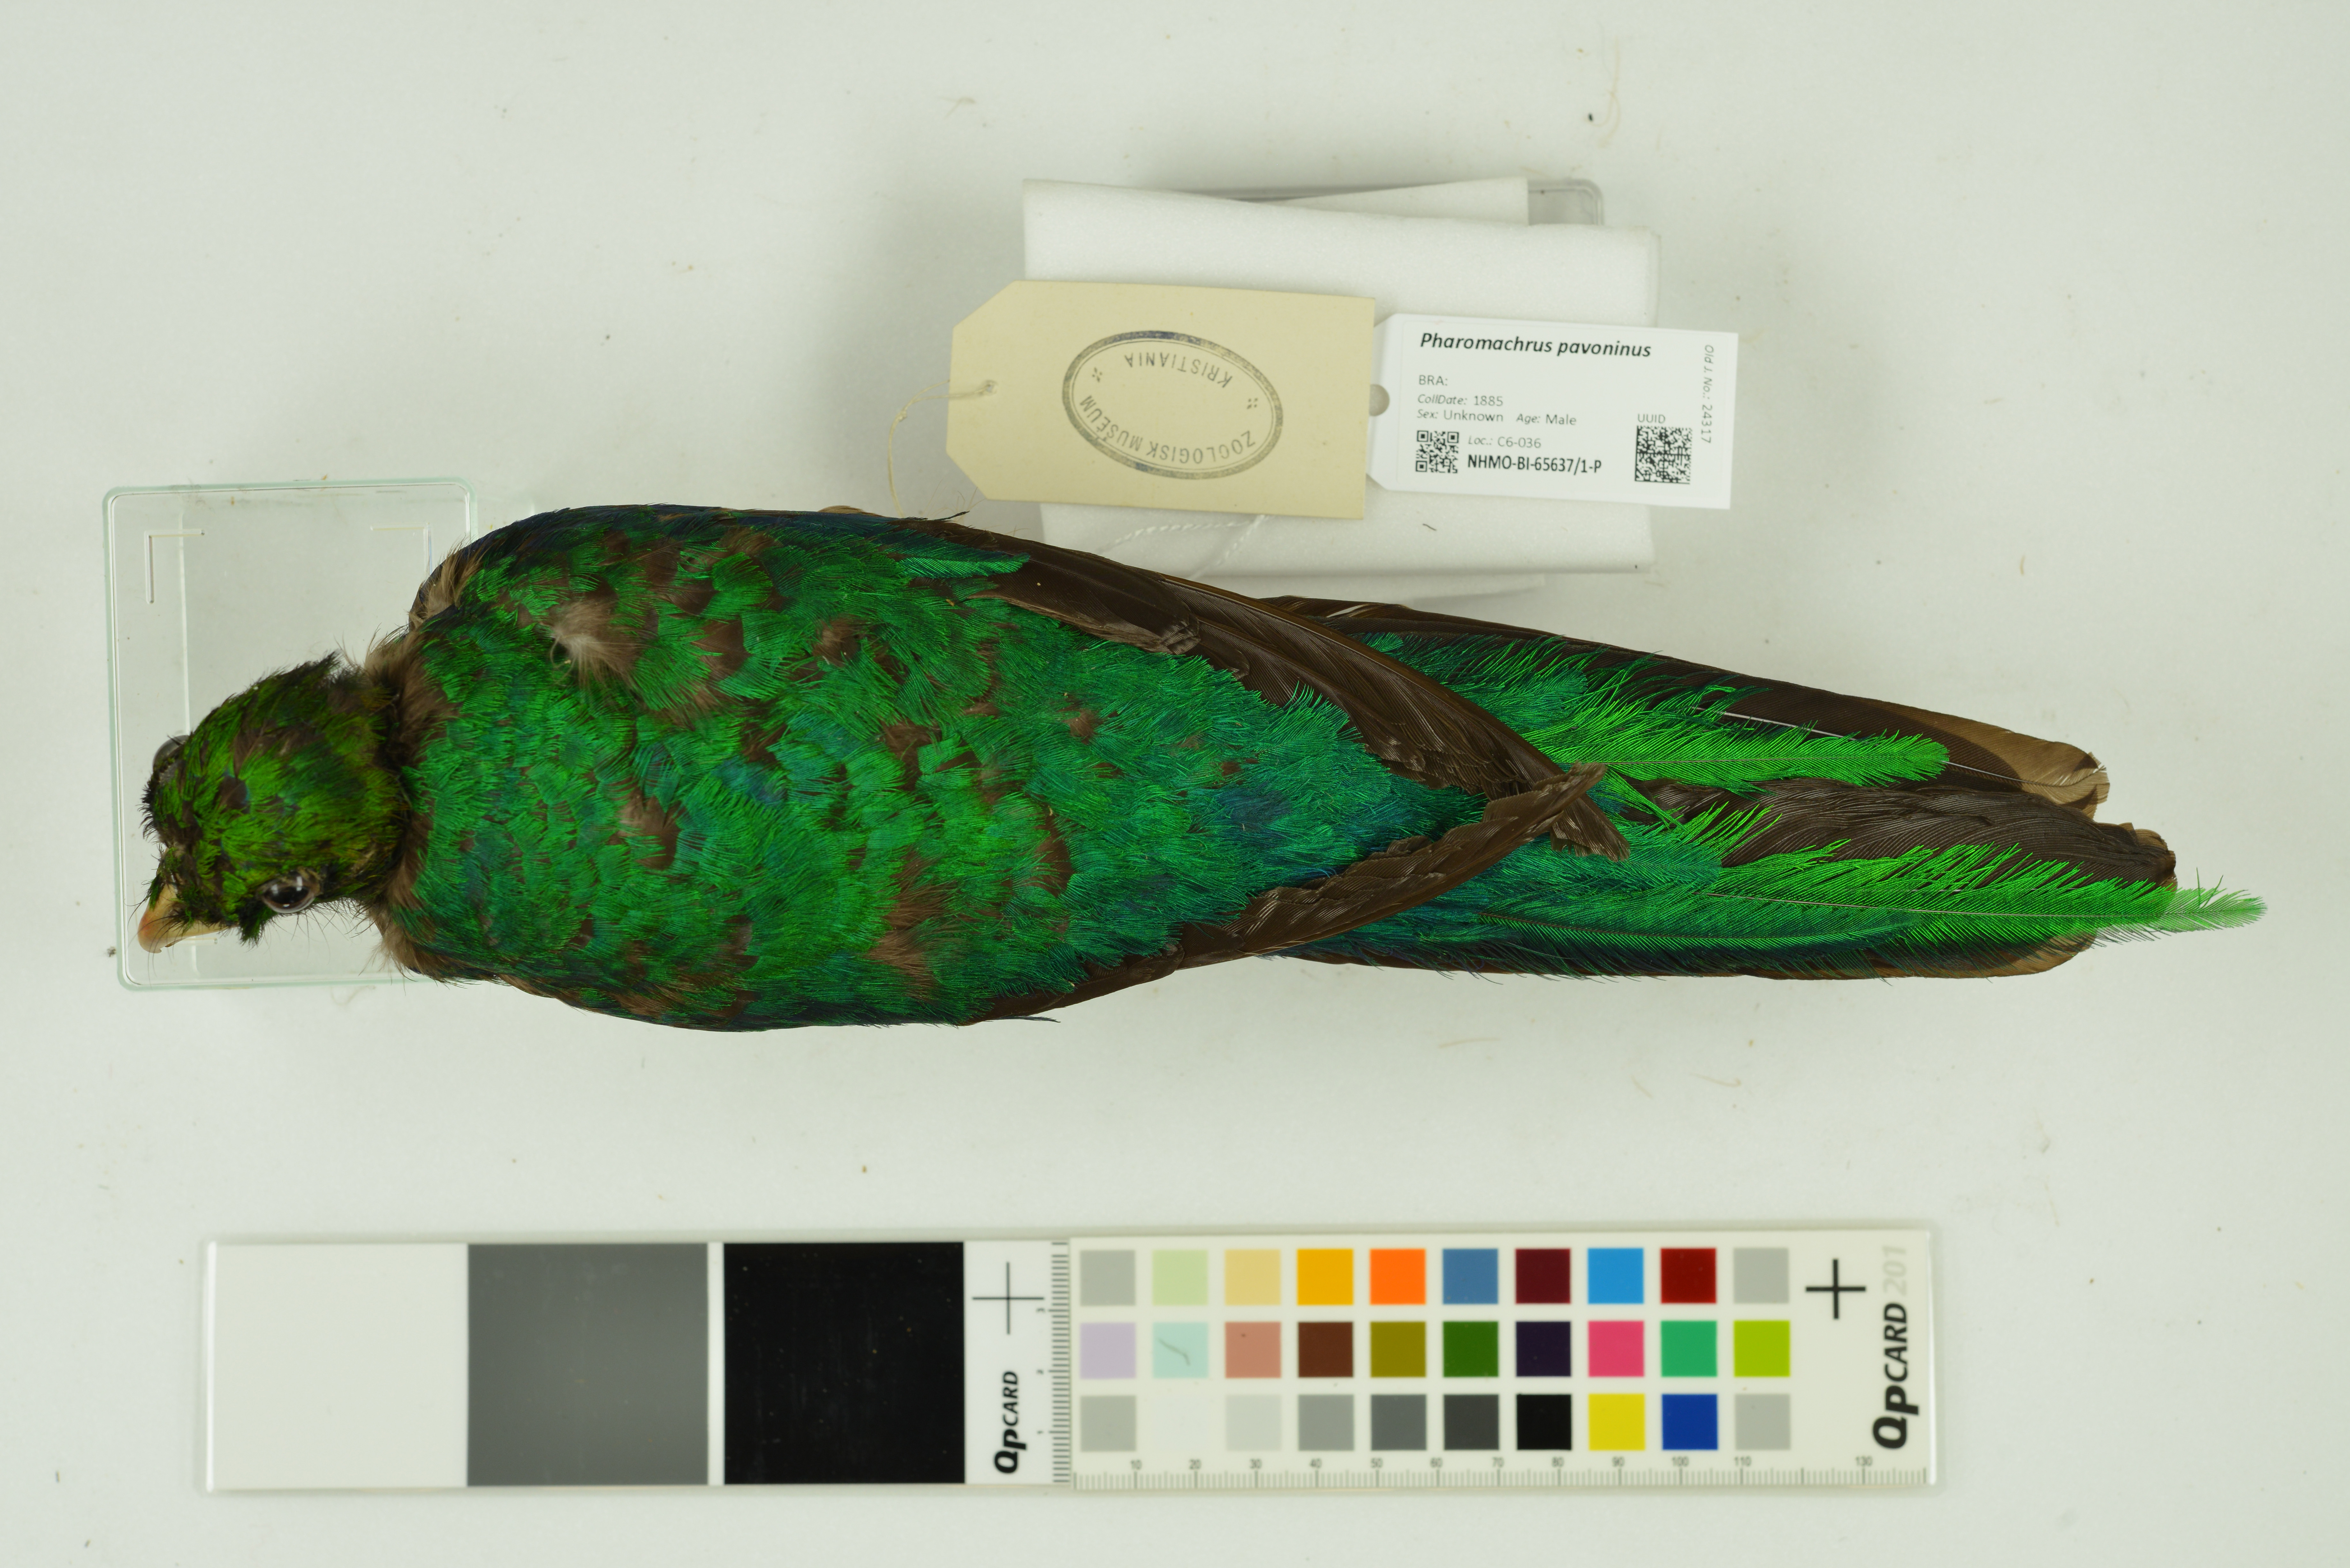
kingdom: Animalia
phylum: Chordata
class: Aves
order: Trogoniformes
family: Trogonidae
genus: Pharomachrus
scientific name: Pharomachrus pavoninus
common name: Pavonine quetzal
